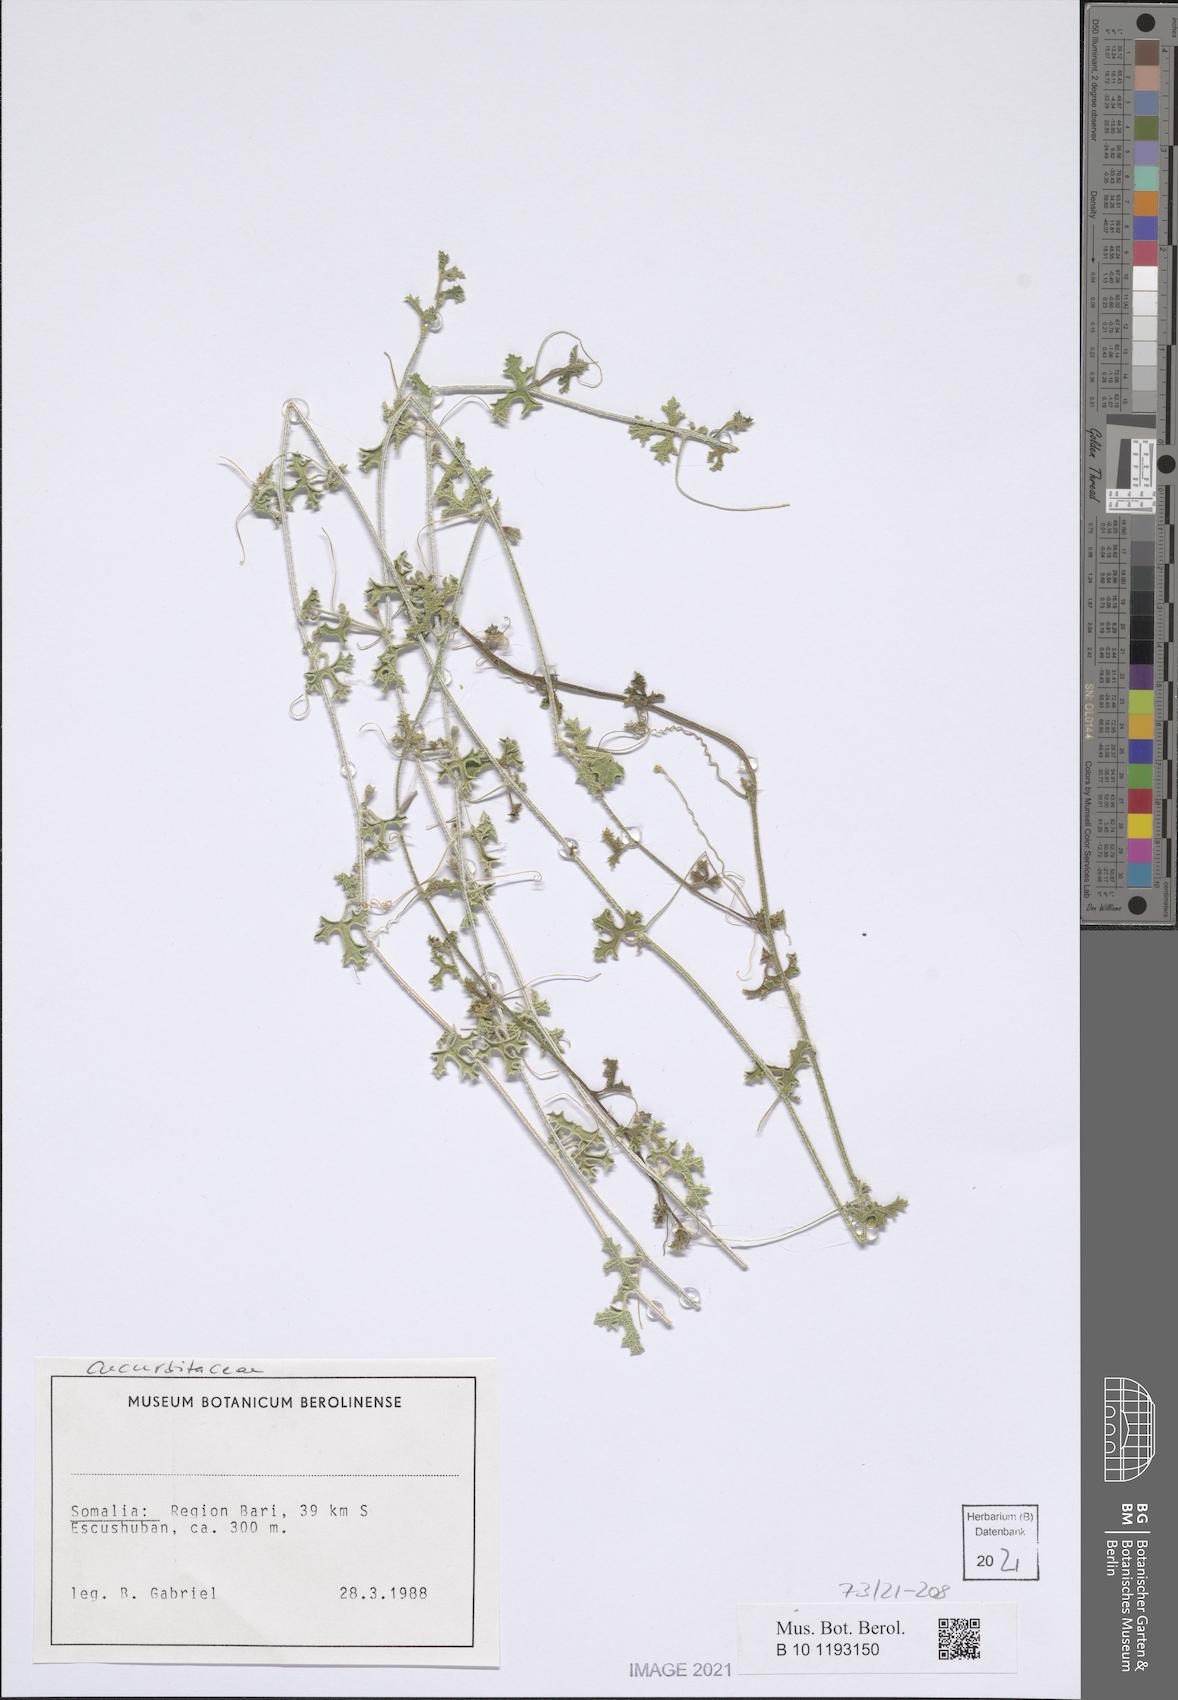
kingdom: Plantae
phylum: Tracheophyta
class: Magnoliopsida
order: Cucurbitales
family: Cucurbitaceae
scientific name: Cucurbitaceae
